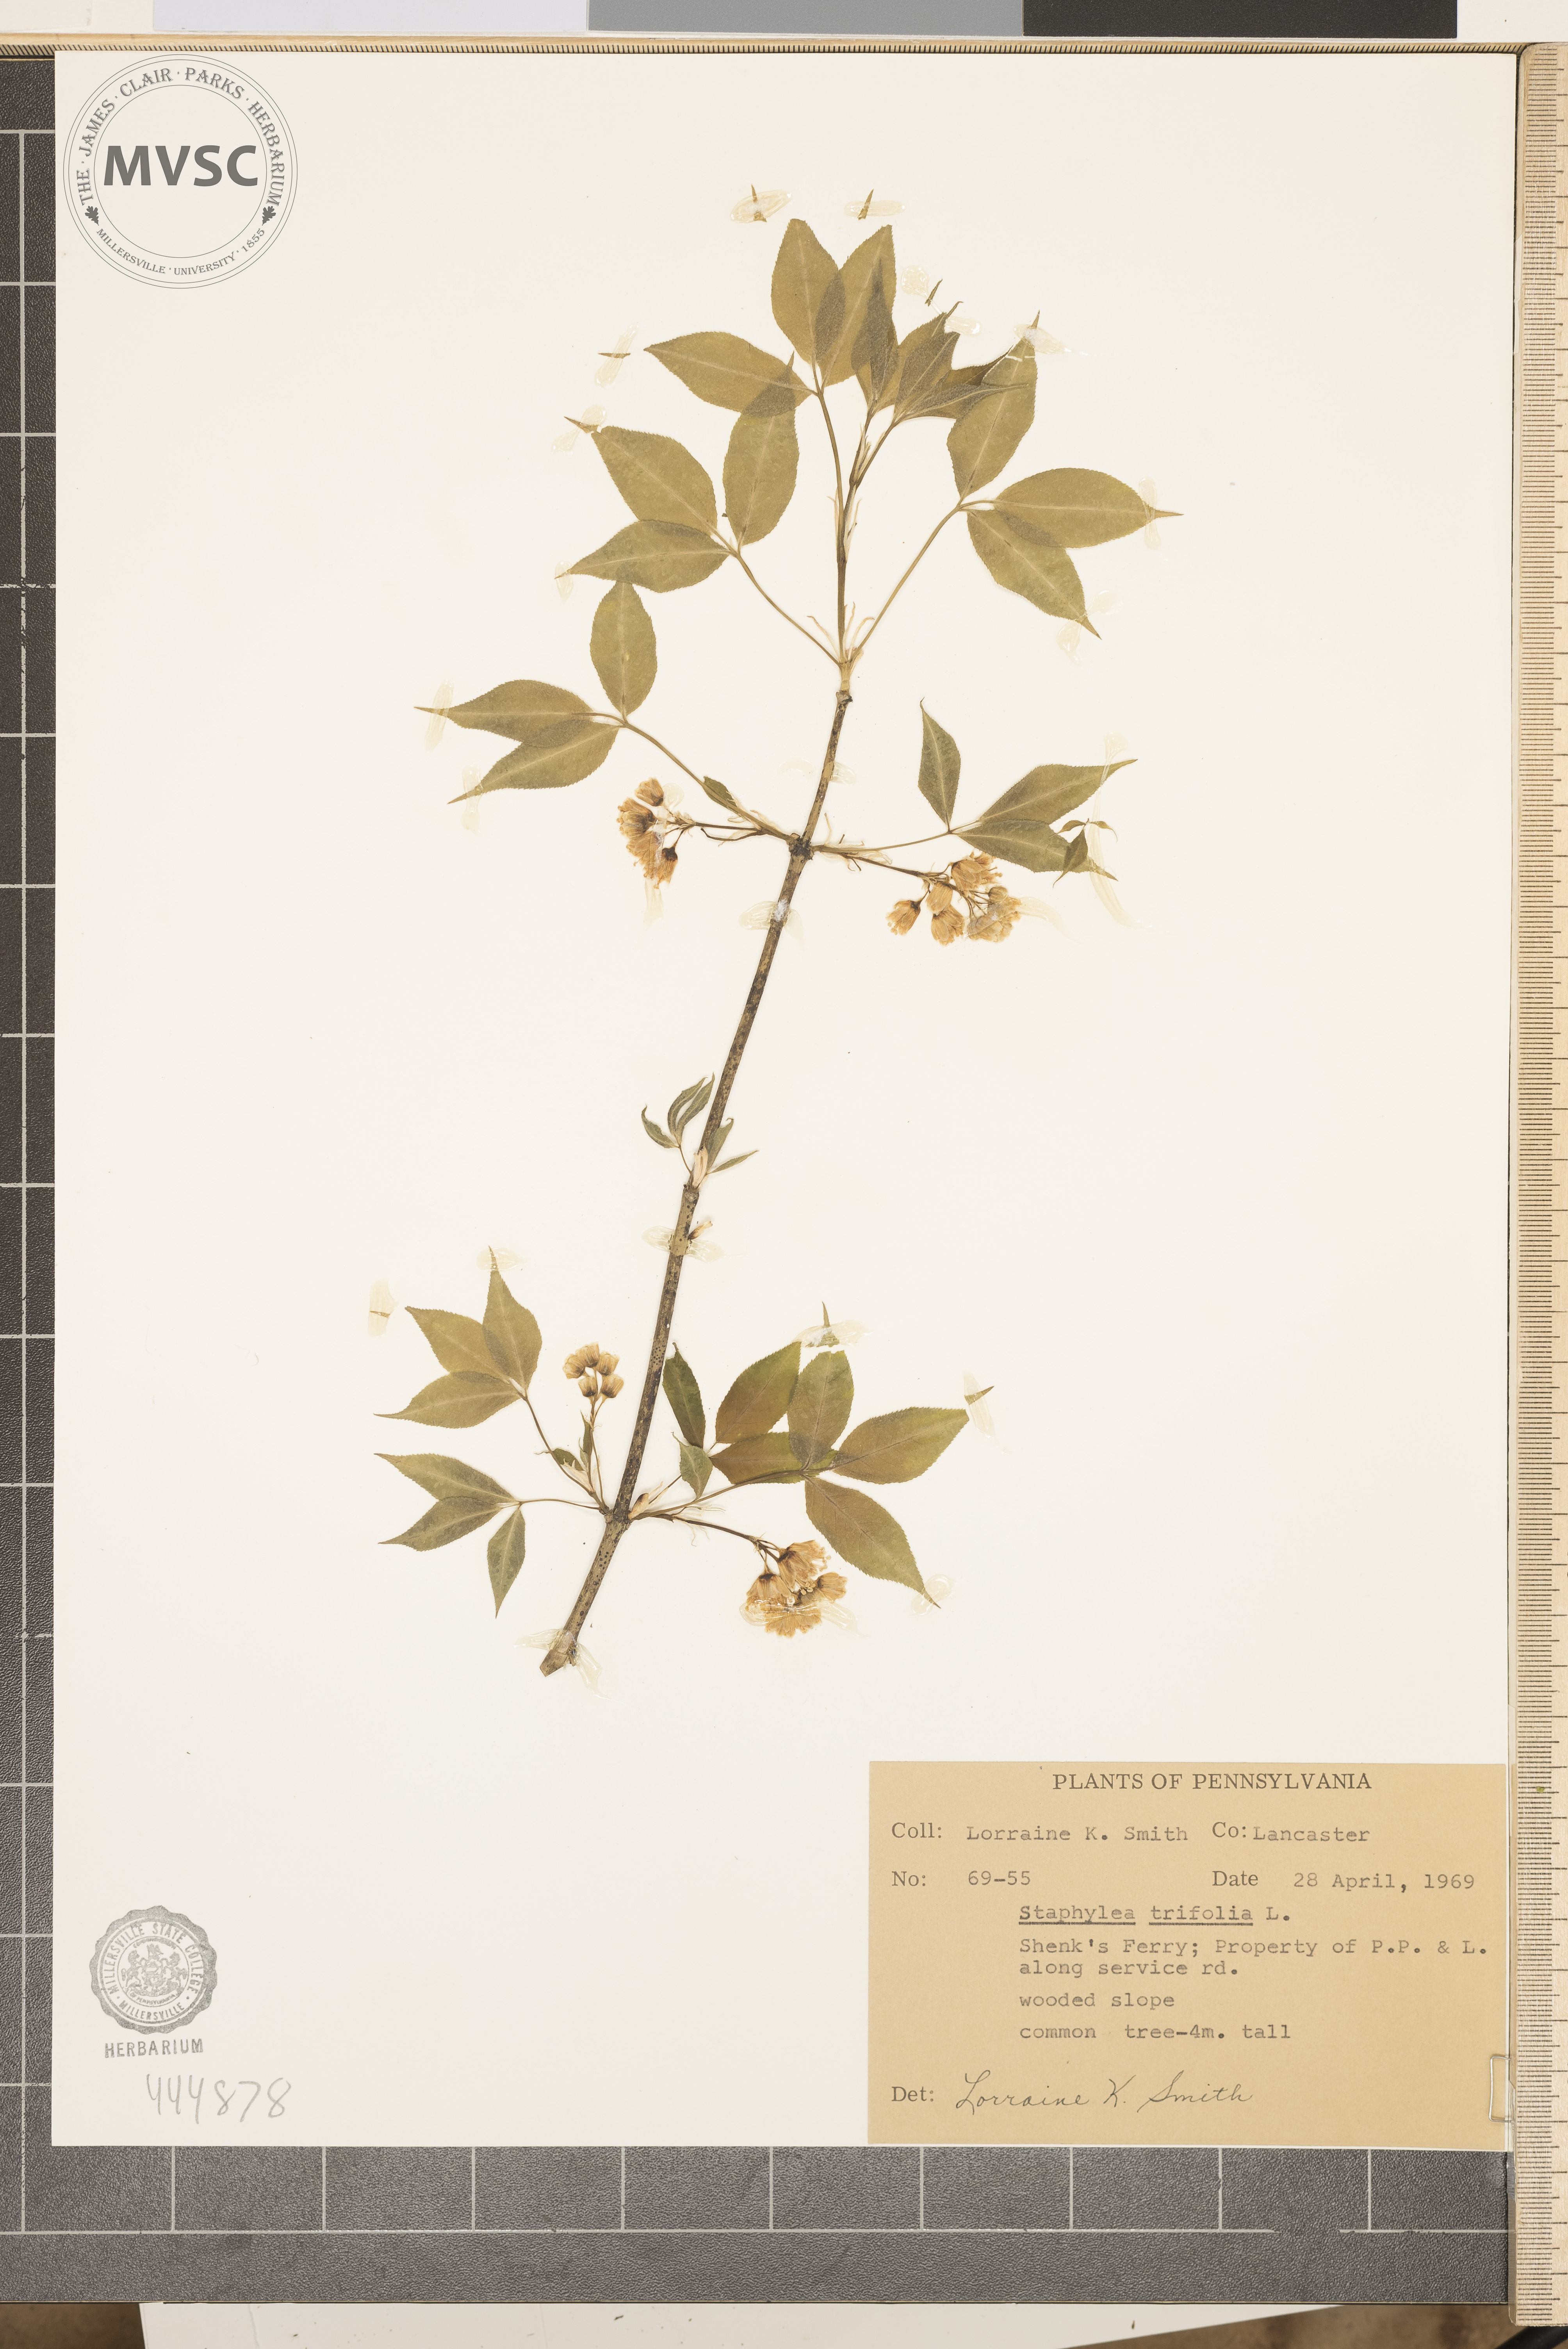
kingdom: Plantae
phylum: Tracheophyta
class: Magnoliopsida
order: Crossosomatales
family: Staphyleaceae
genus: Staphylea
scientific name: Staphylea trifolia
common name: American bladdernut
